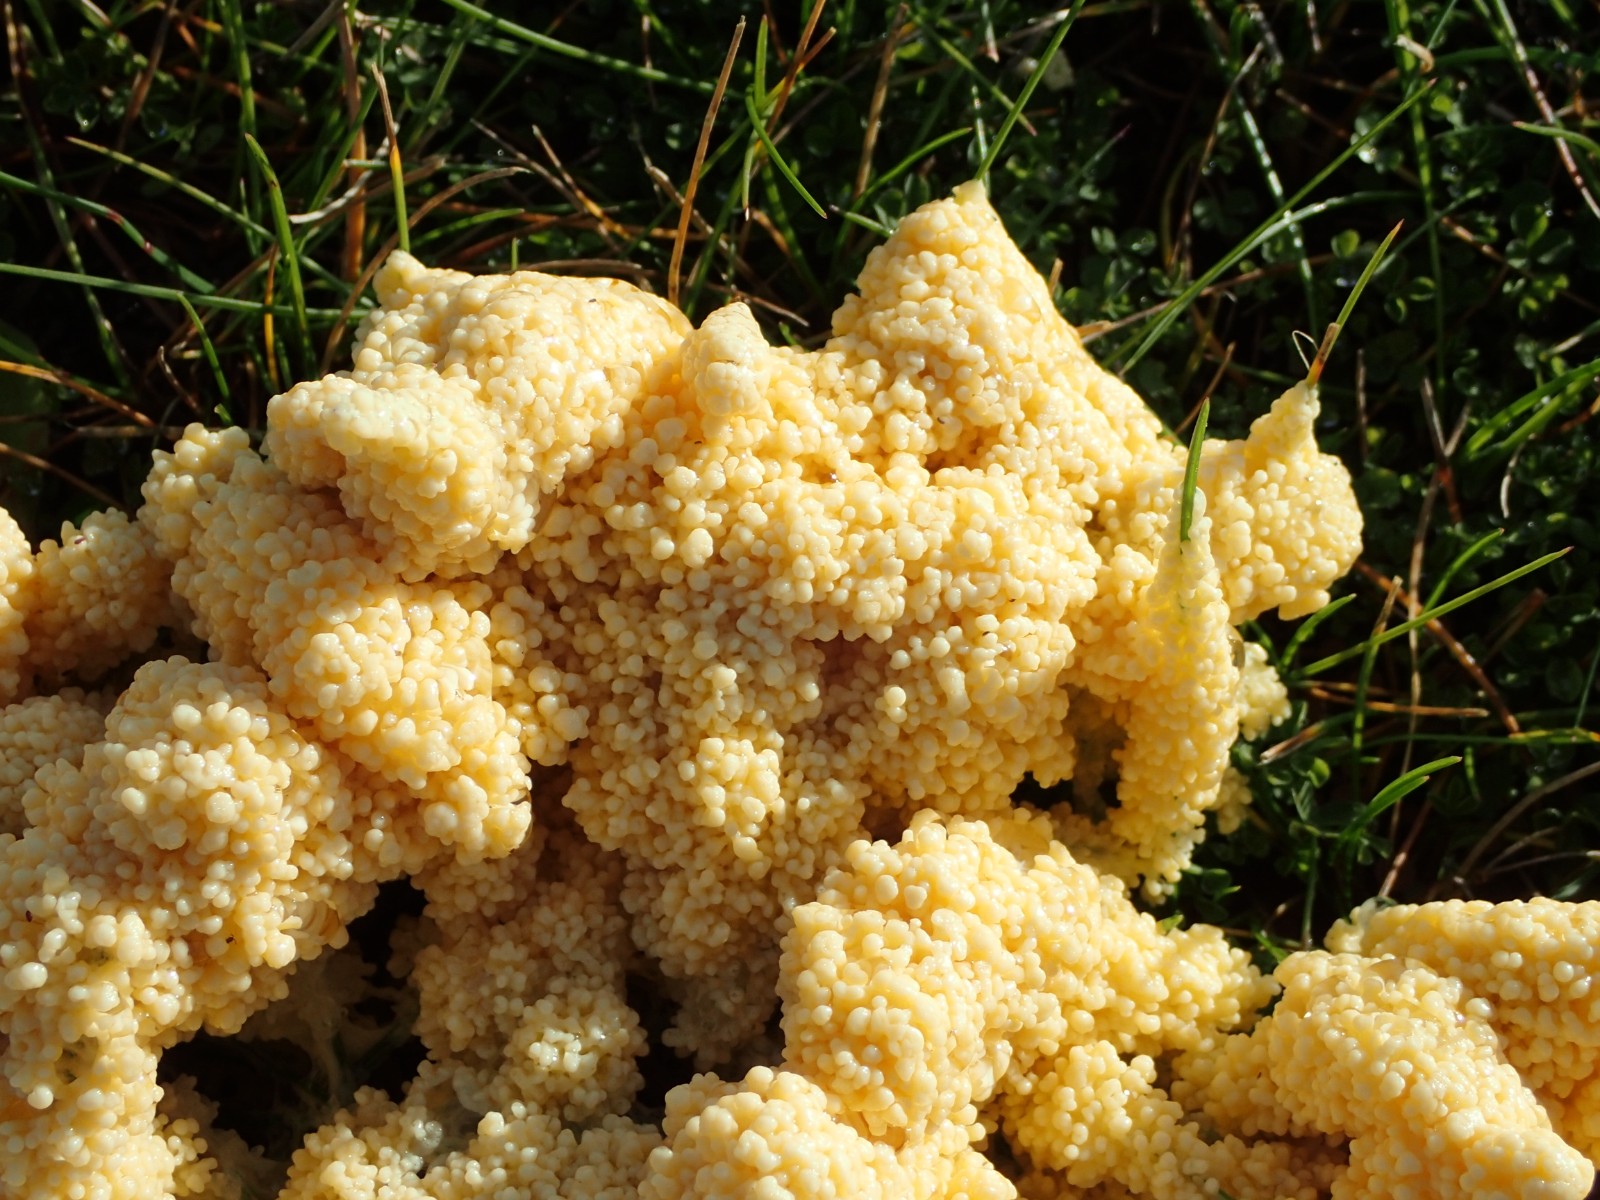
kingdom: Protozoa
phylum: Mycetozoa
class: Myxomycetes
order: Physarales
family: Physaraceae
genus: Didymium
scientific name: Didymium
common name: urteskum
